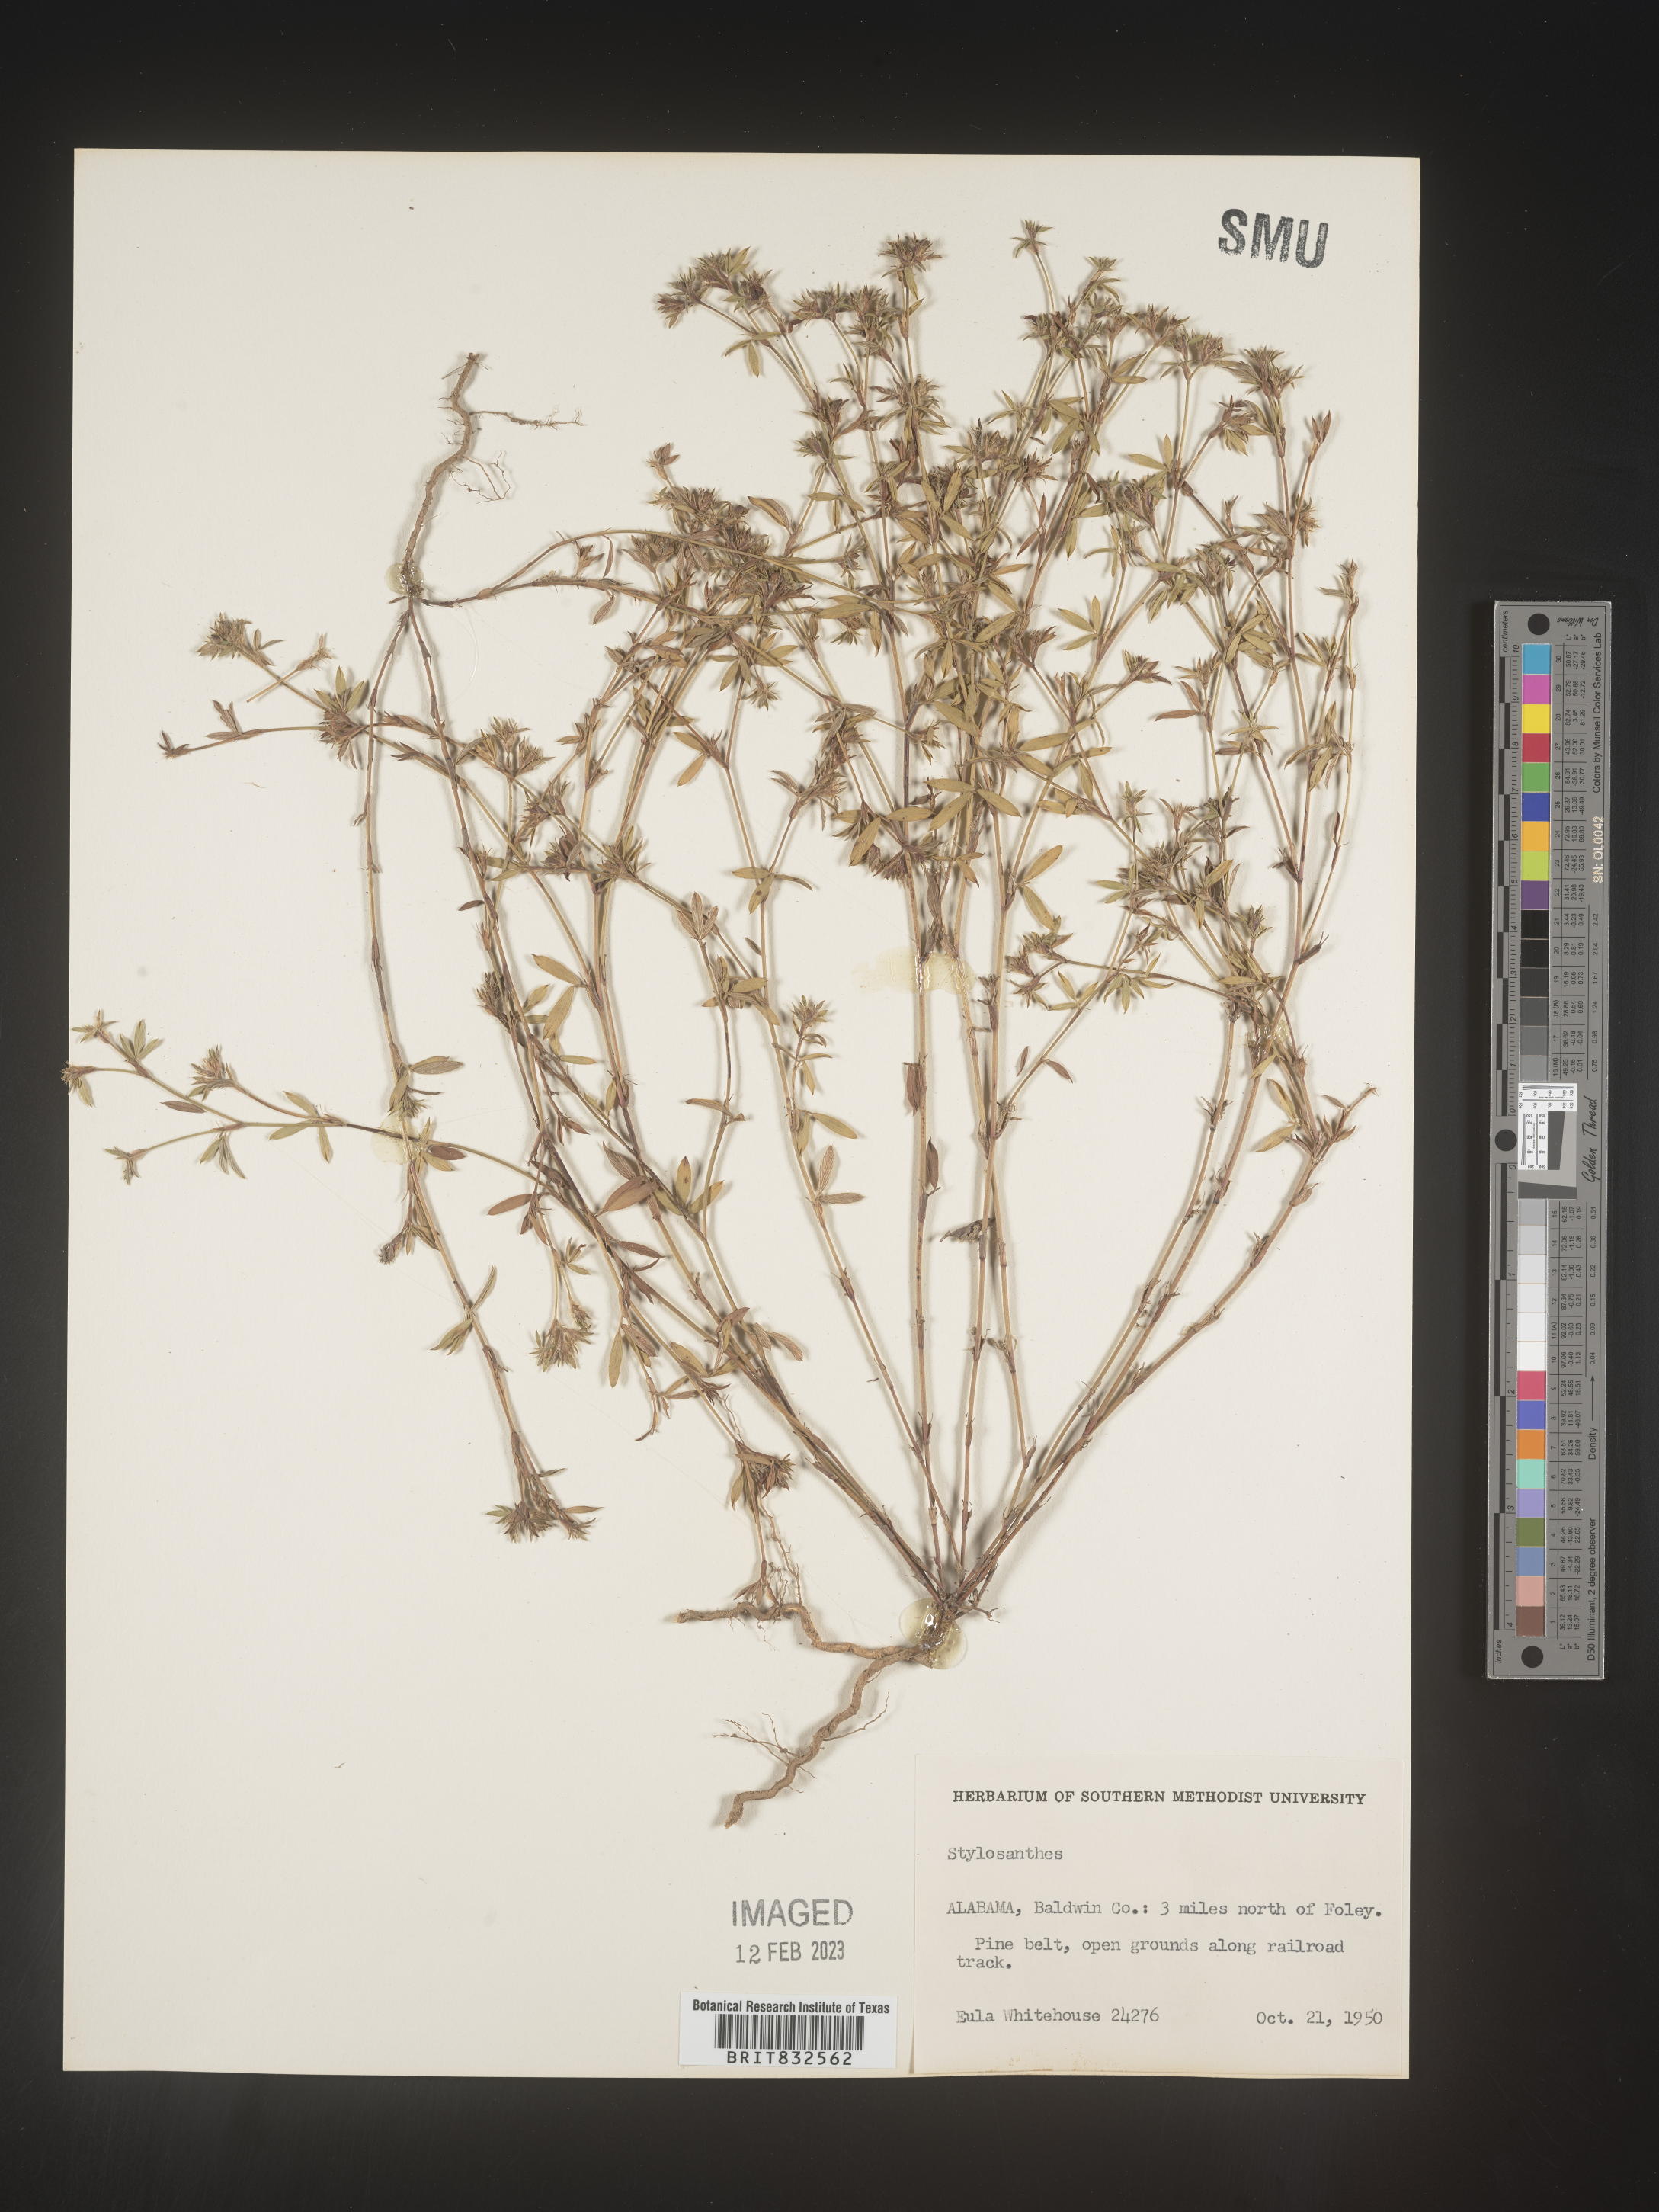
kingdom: Plantae
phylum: Tracheophyta
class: Magnoliopsida
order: Fabales
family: Fabaceae
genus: Stylosanthes
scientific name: Stylosanthes
